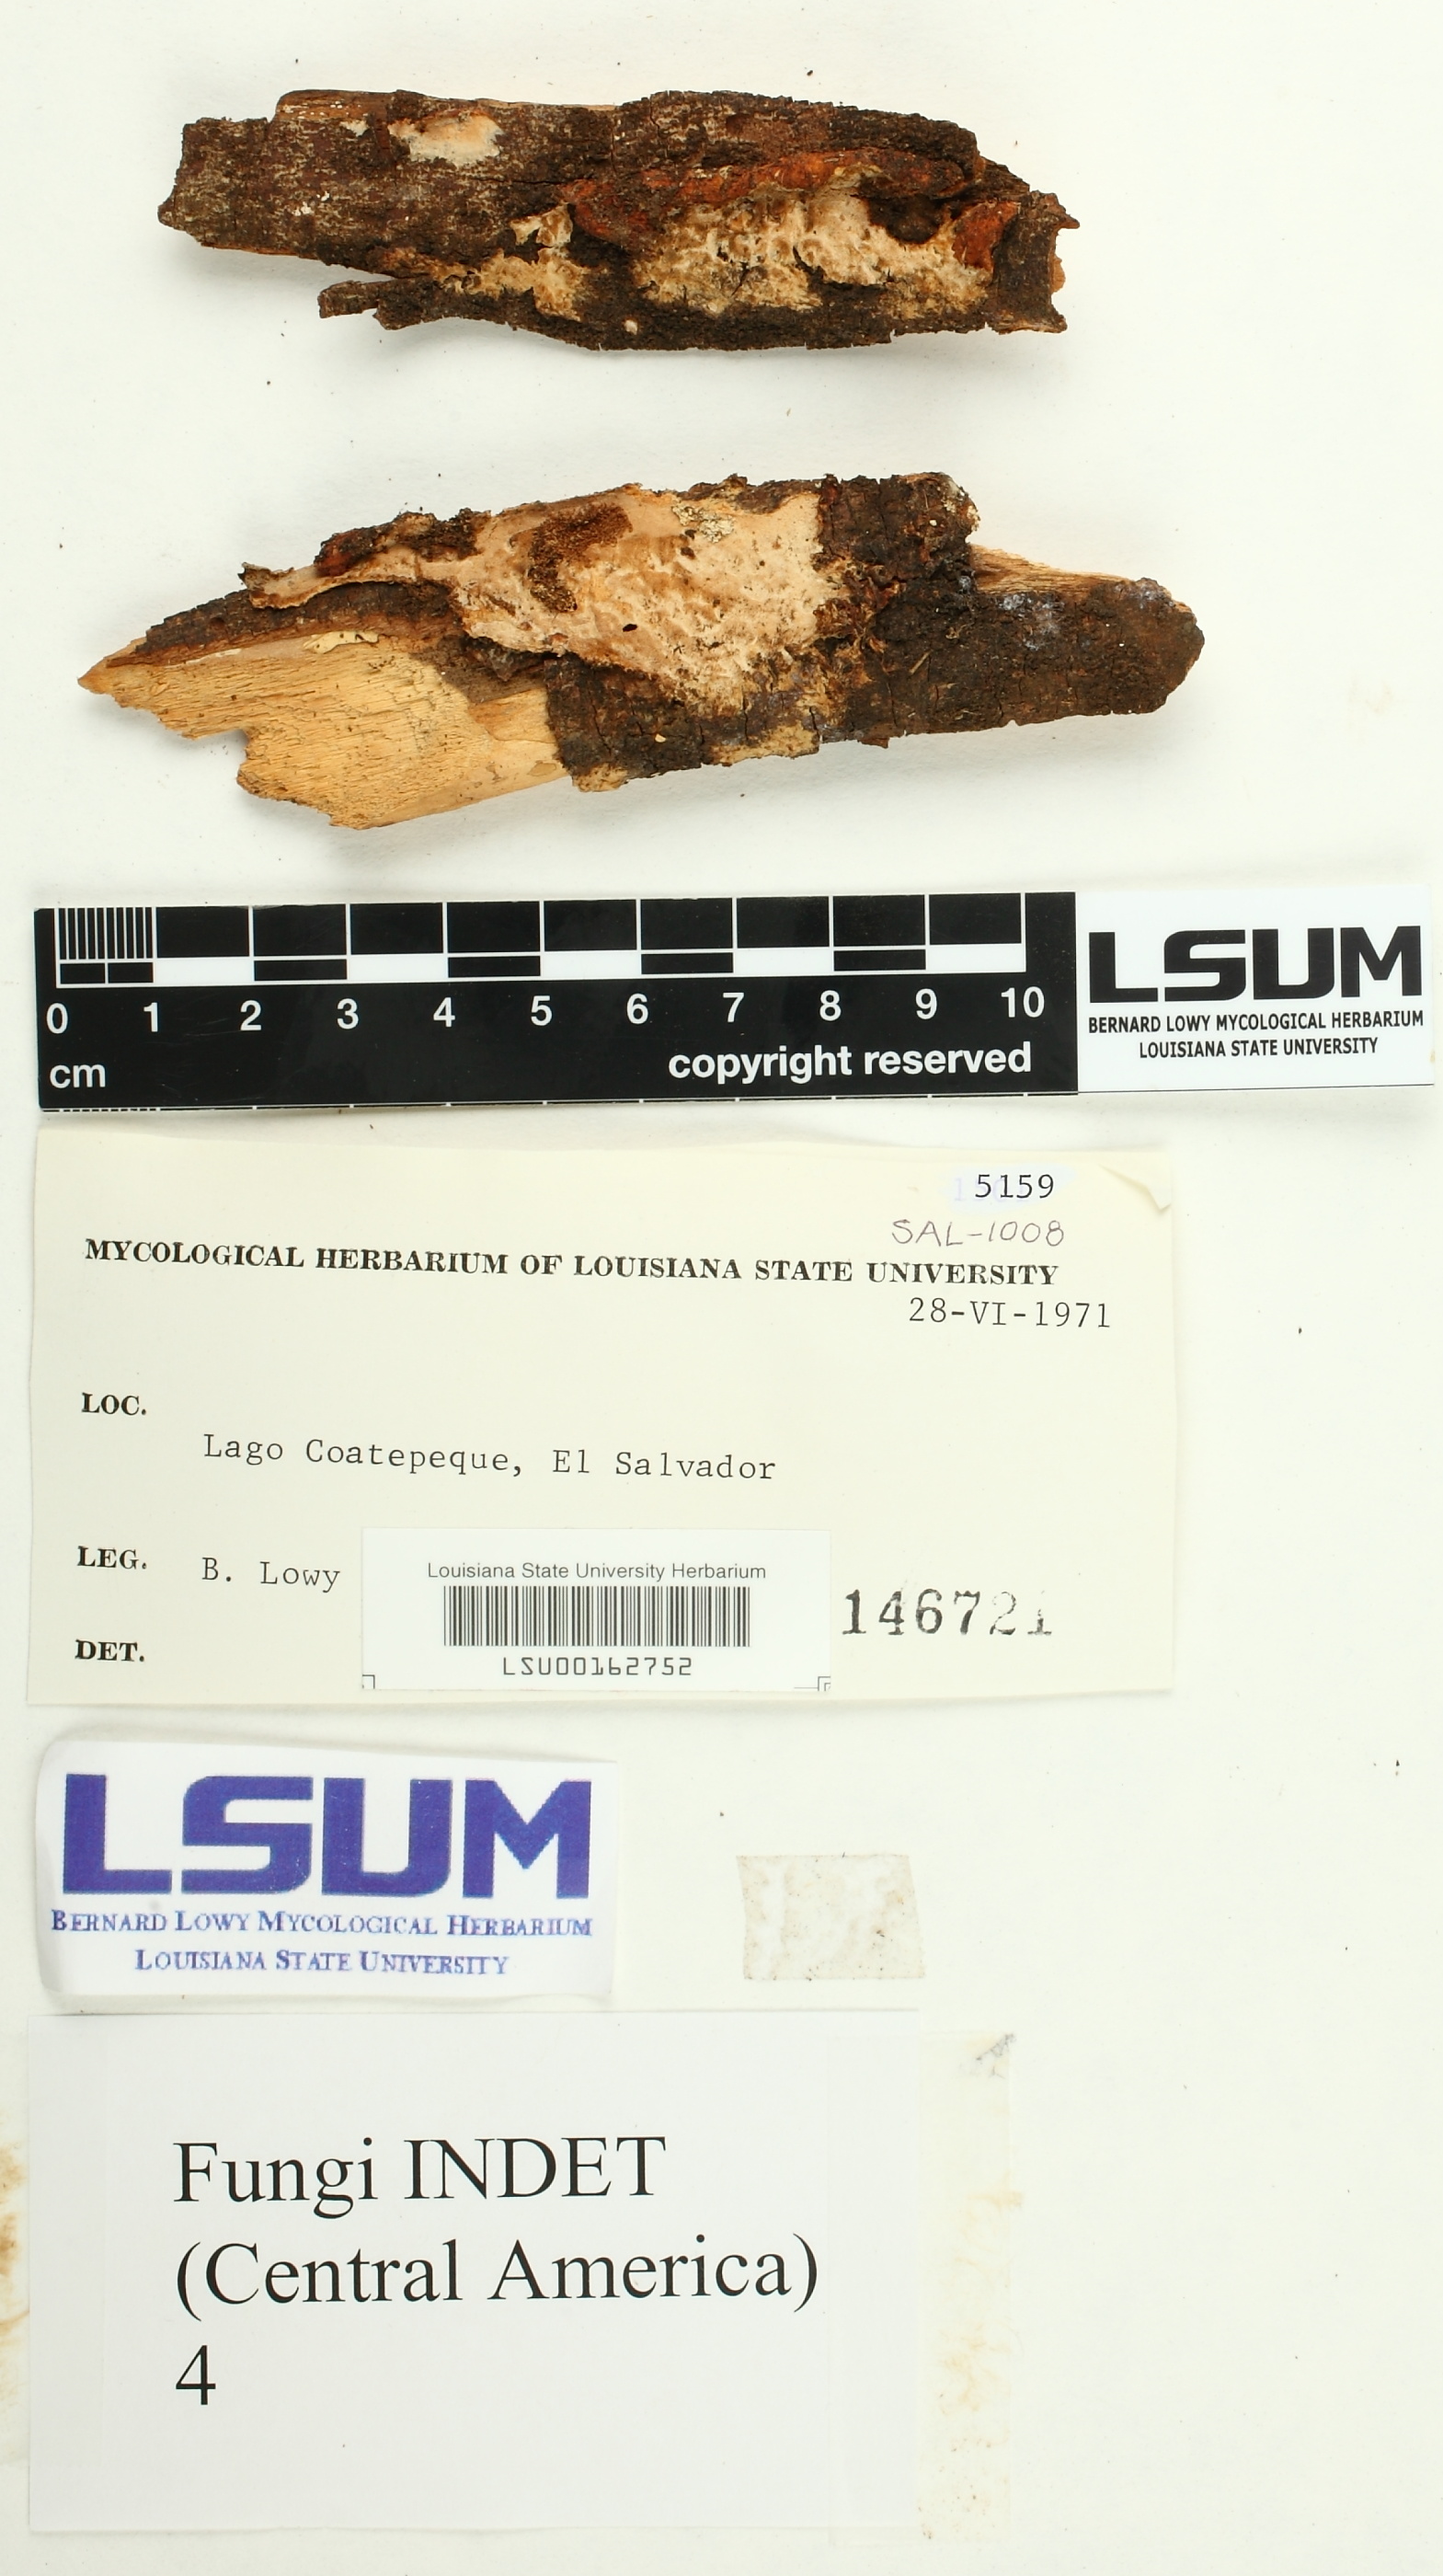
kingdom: Fungi
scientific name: Fungi
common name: Fungi
